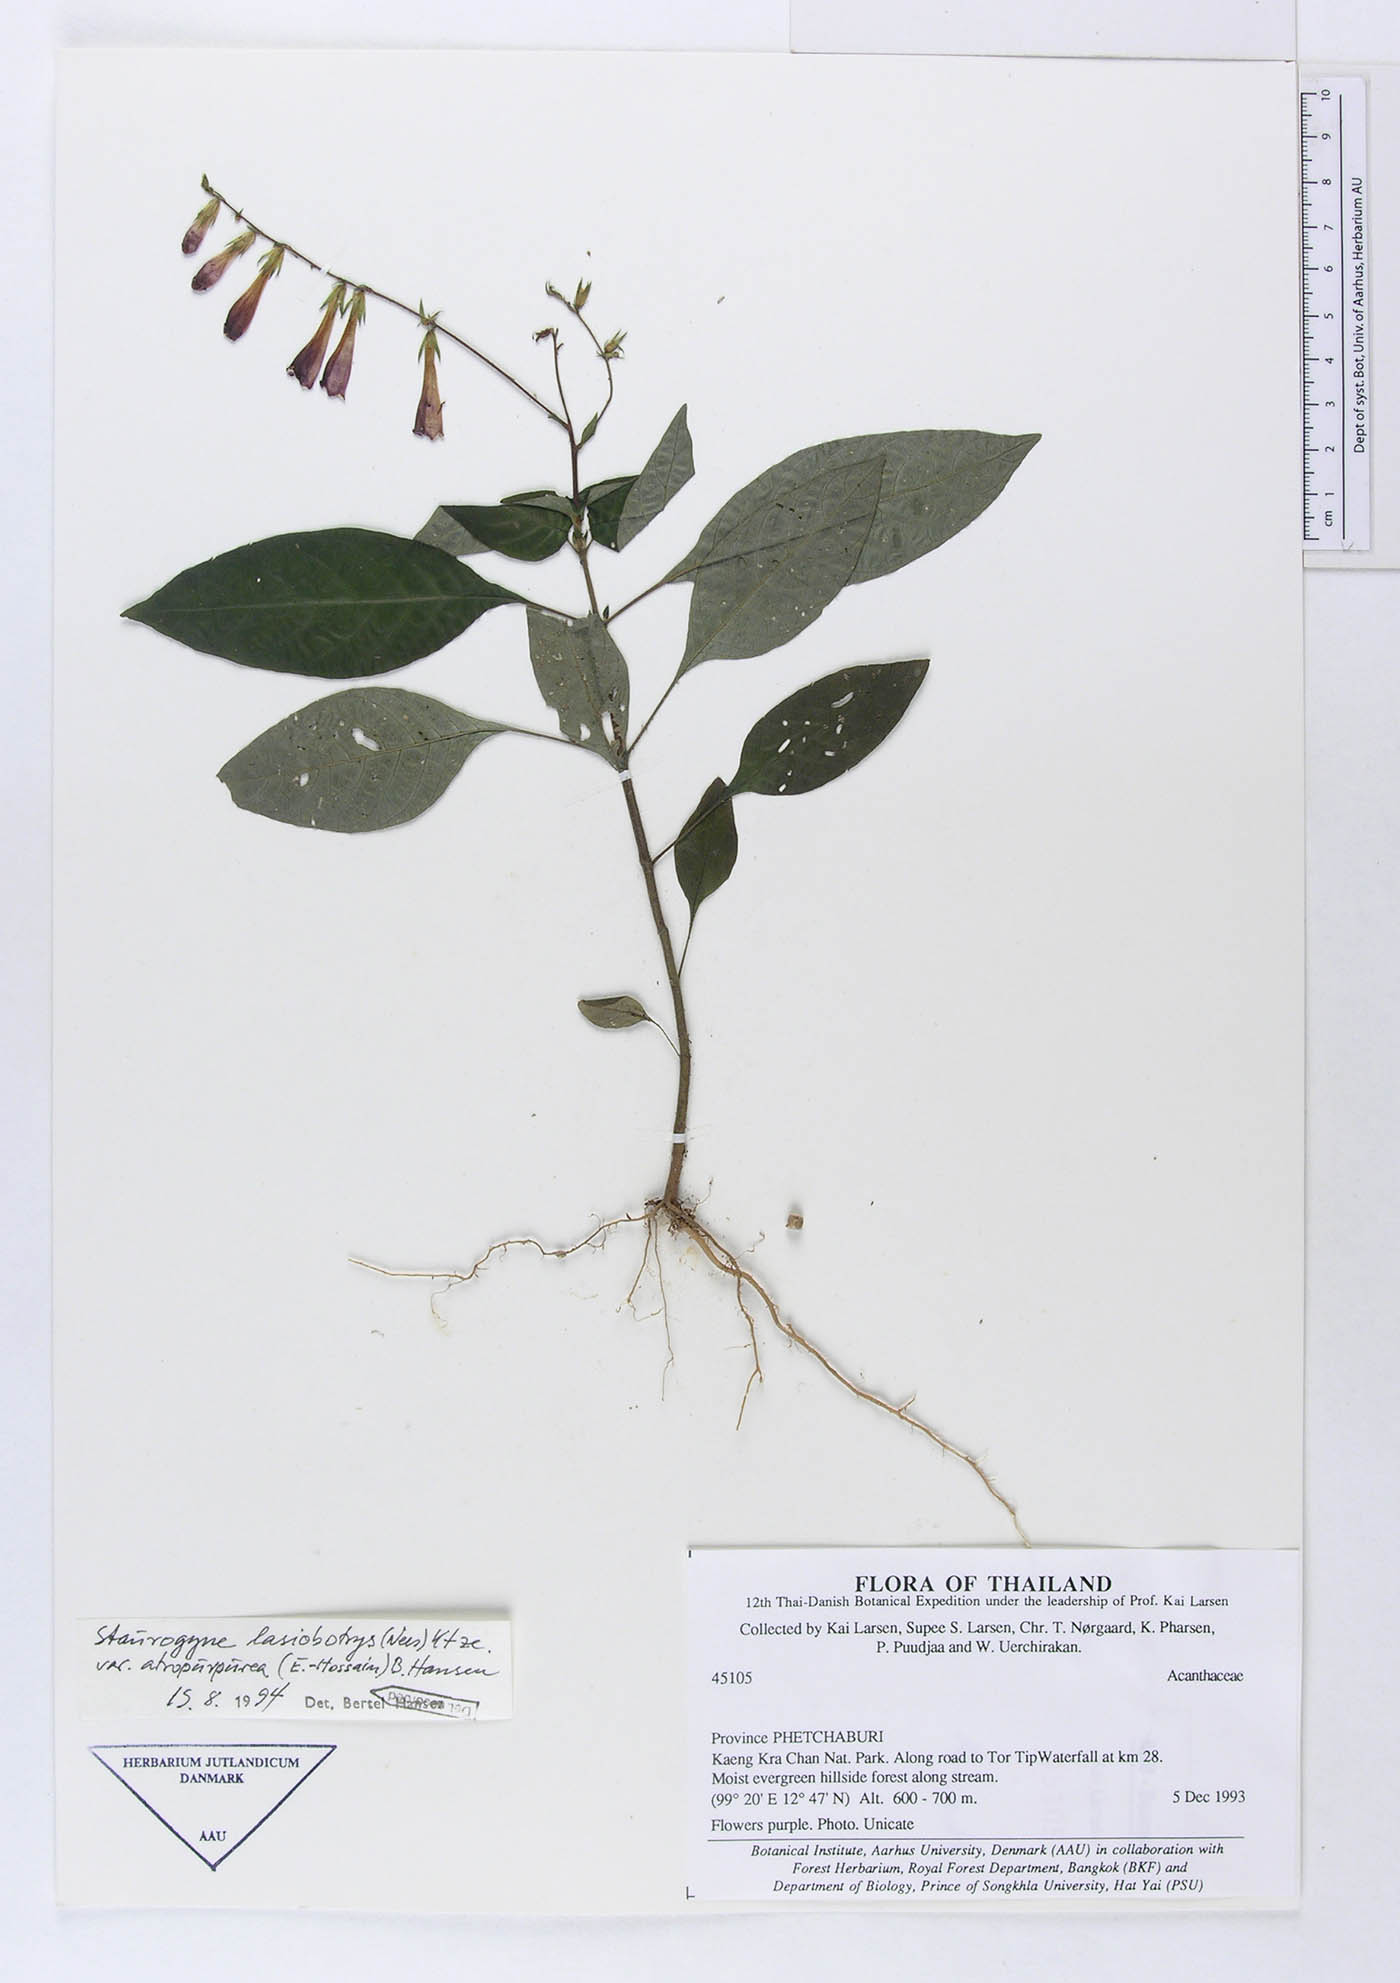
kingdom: Plantae
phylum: Tracheophyta
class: Magnoliopsida
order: Lamiales
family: Acanthaceae
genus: Staurogyne
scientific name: Staurogyne lasiobotrys
